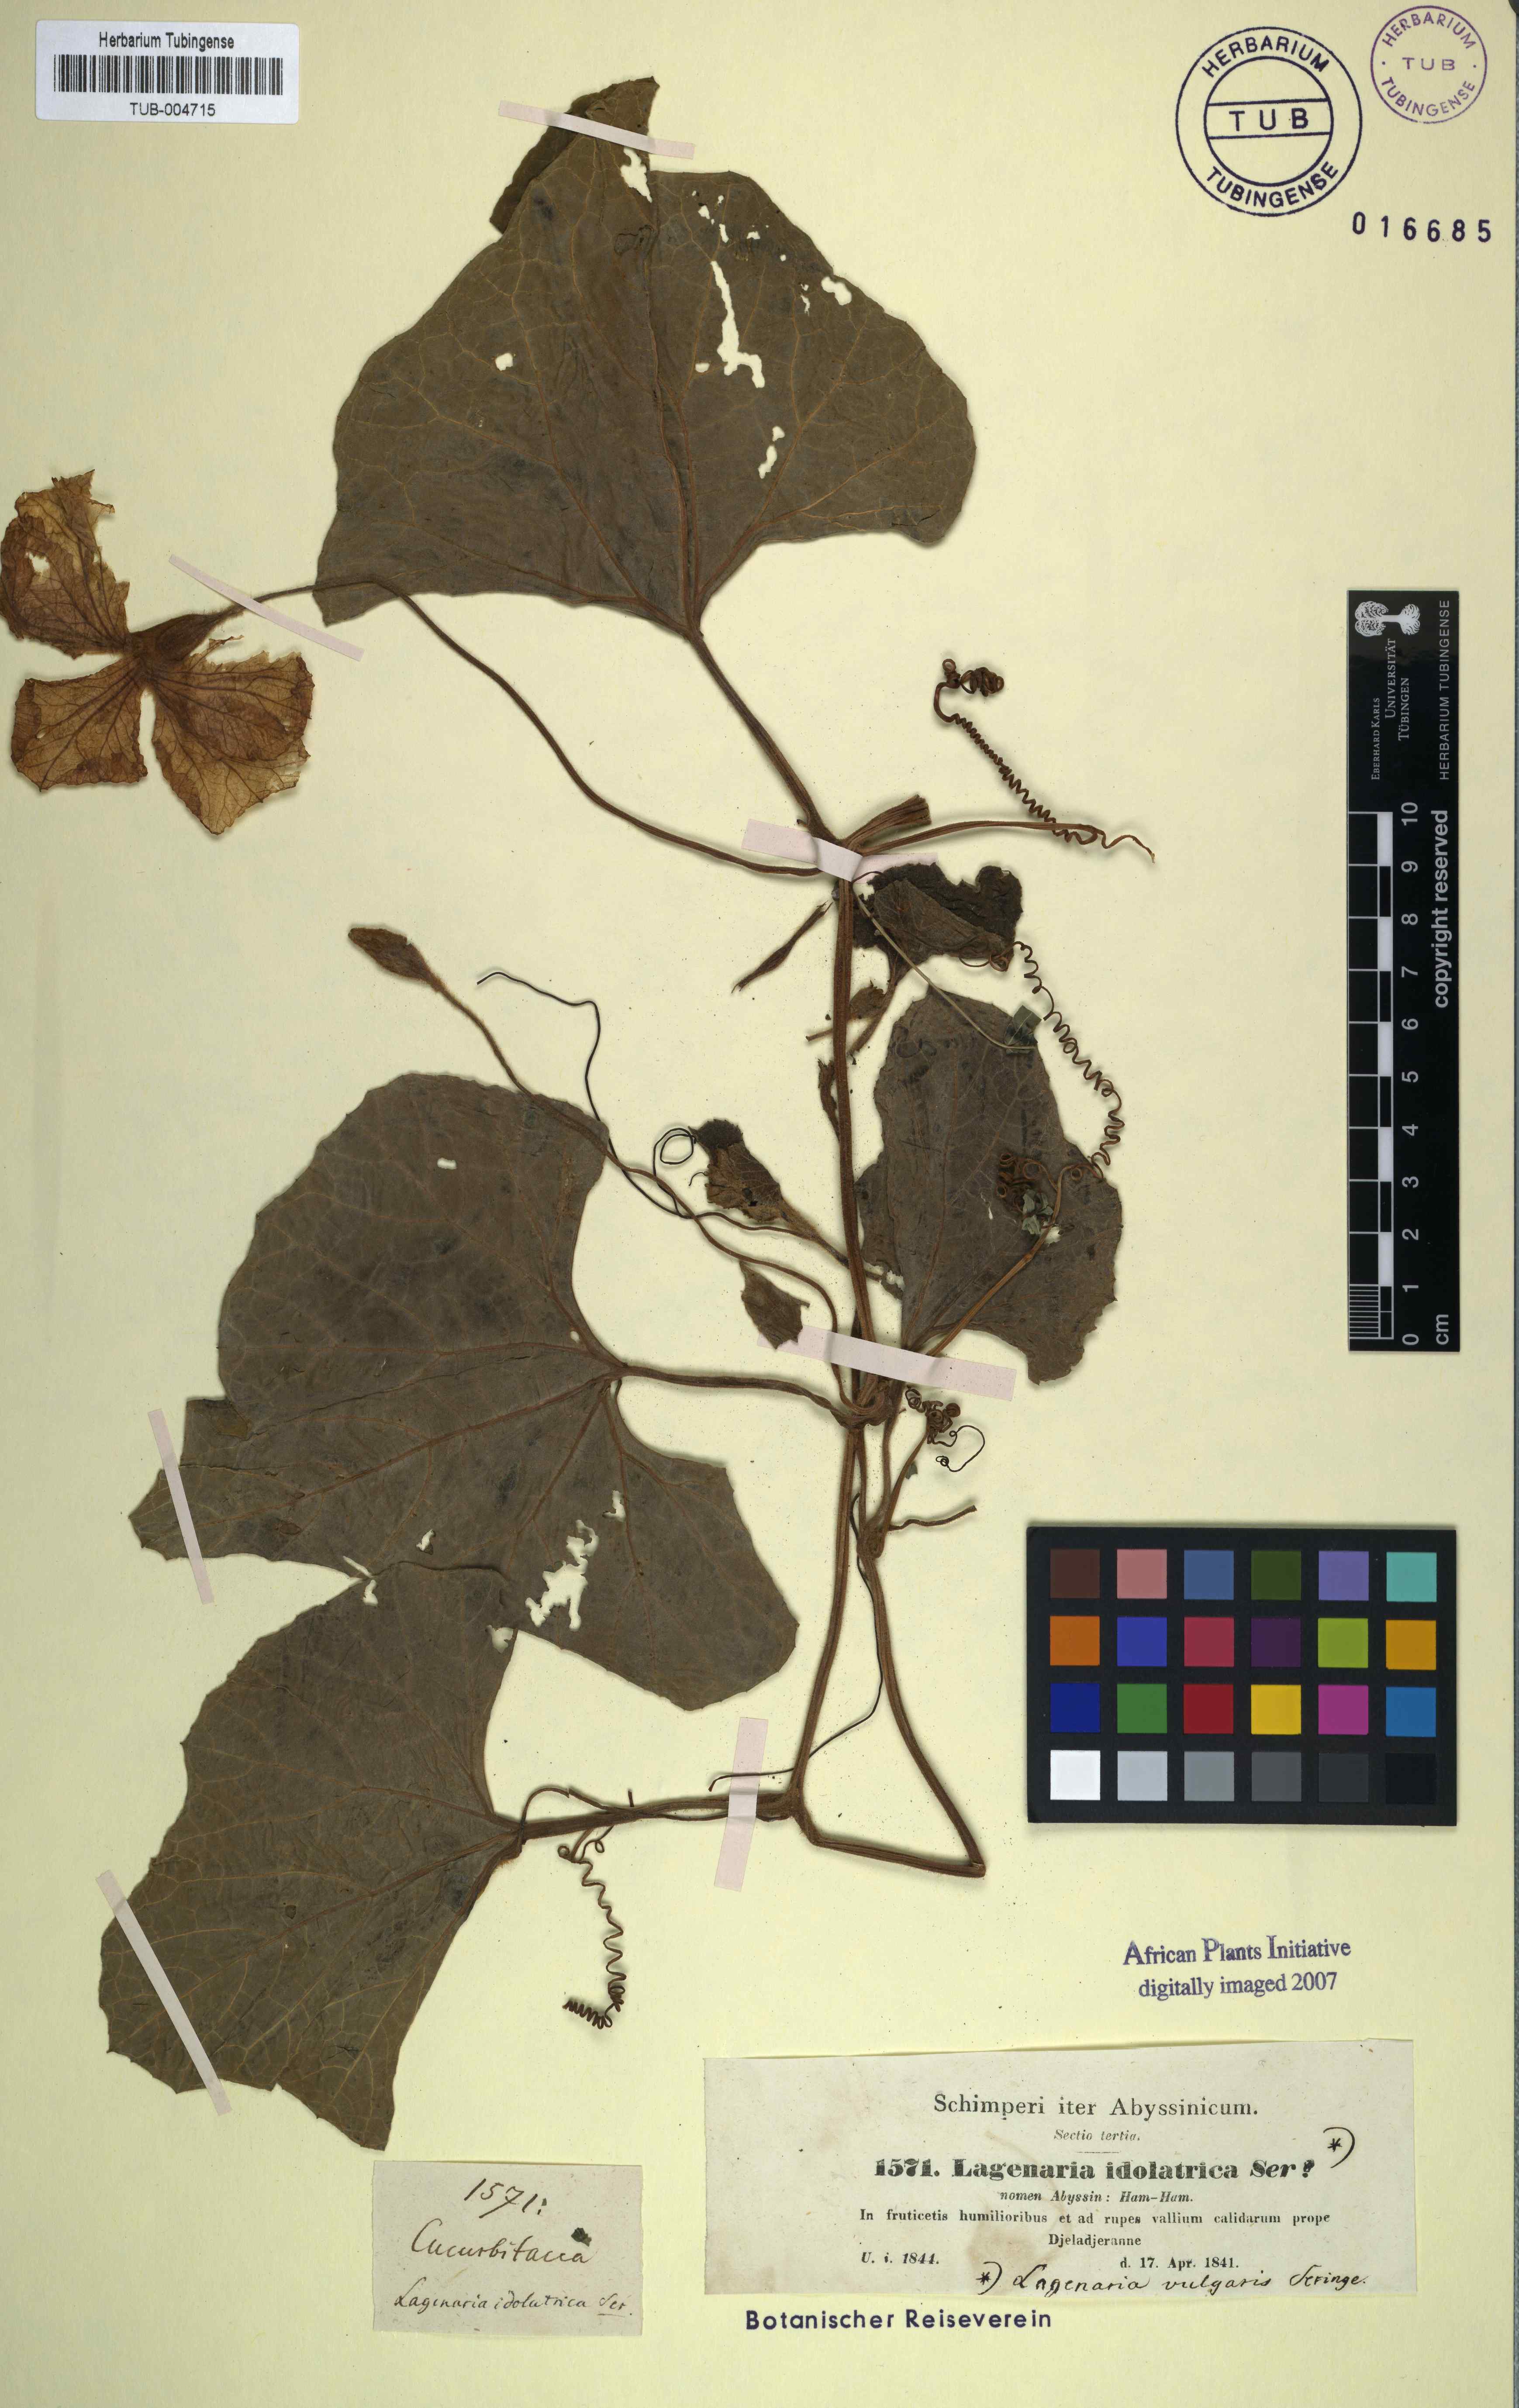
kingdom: Plantae
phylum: Tracheophyta
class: Magnoliopsida
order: Cucurbitales
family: Cucurbitaceae
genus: Lagenaria
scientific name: Lagenaria siceraria
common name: Bottle gourd
